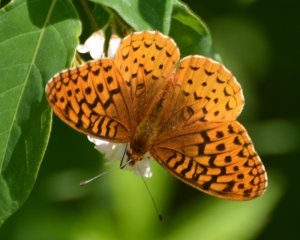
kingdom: Animalia
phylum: Arthropoda
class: Insecta
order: Lepidoptera
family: Nymphalidae
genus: Speyeria
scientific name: Speyeria cybele
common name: Great Spangled Fritillary
